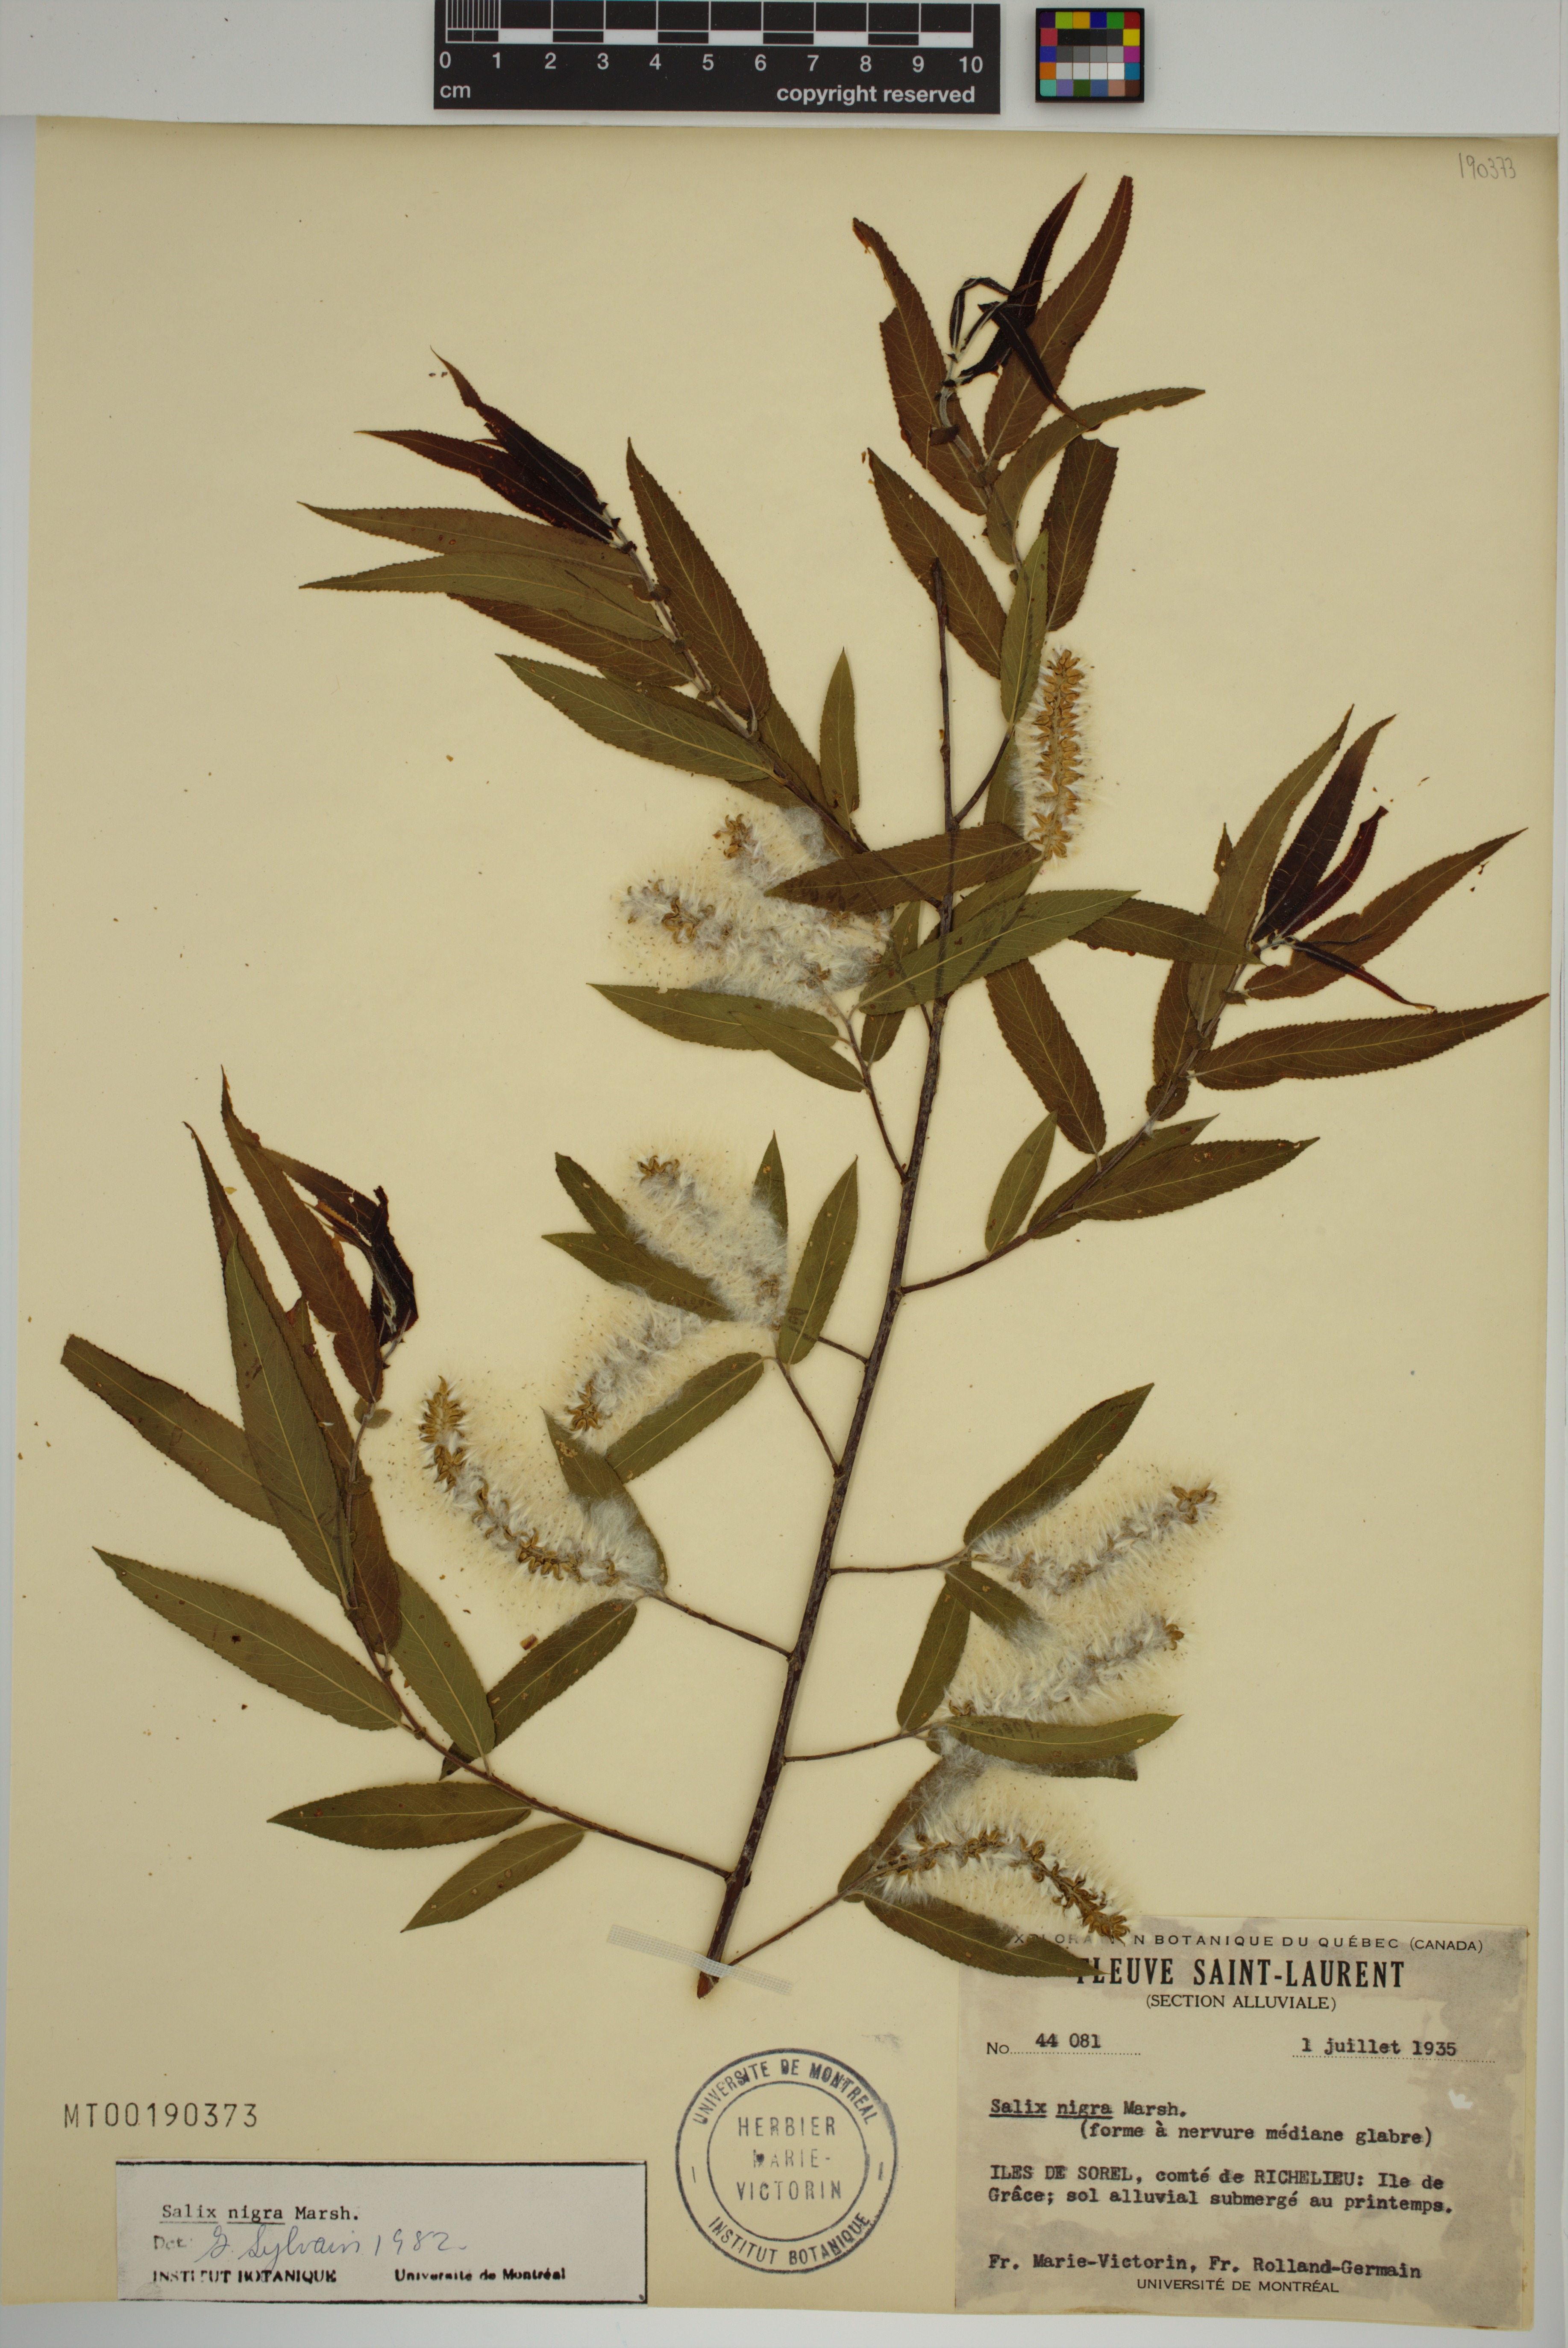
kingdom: Plantae
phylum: Tracheophyta
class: Magnoliopsida
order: Malpighiales
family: Salicaceae
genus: Salix
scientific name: Salix nigra
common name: Black willow
